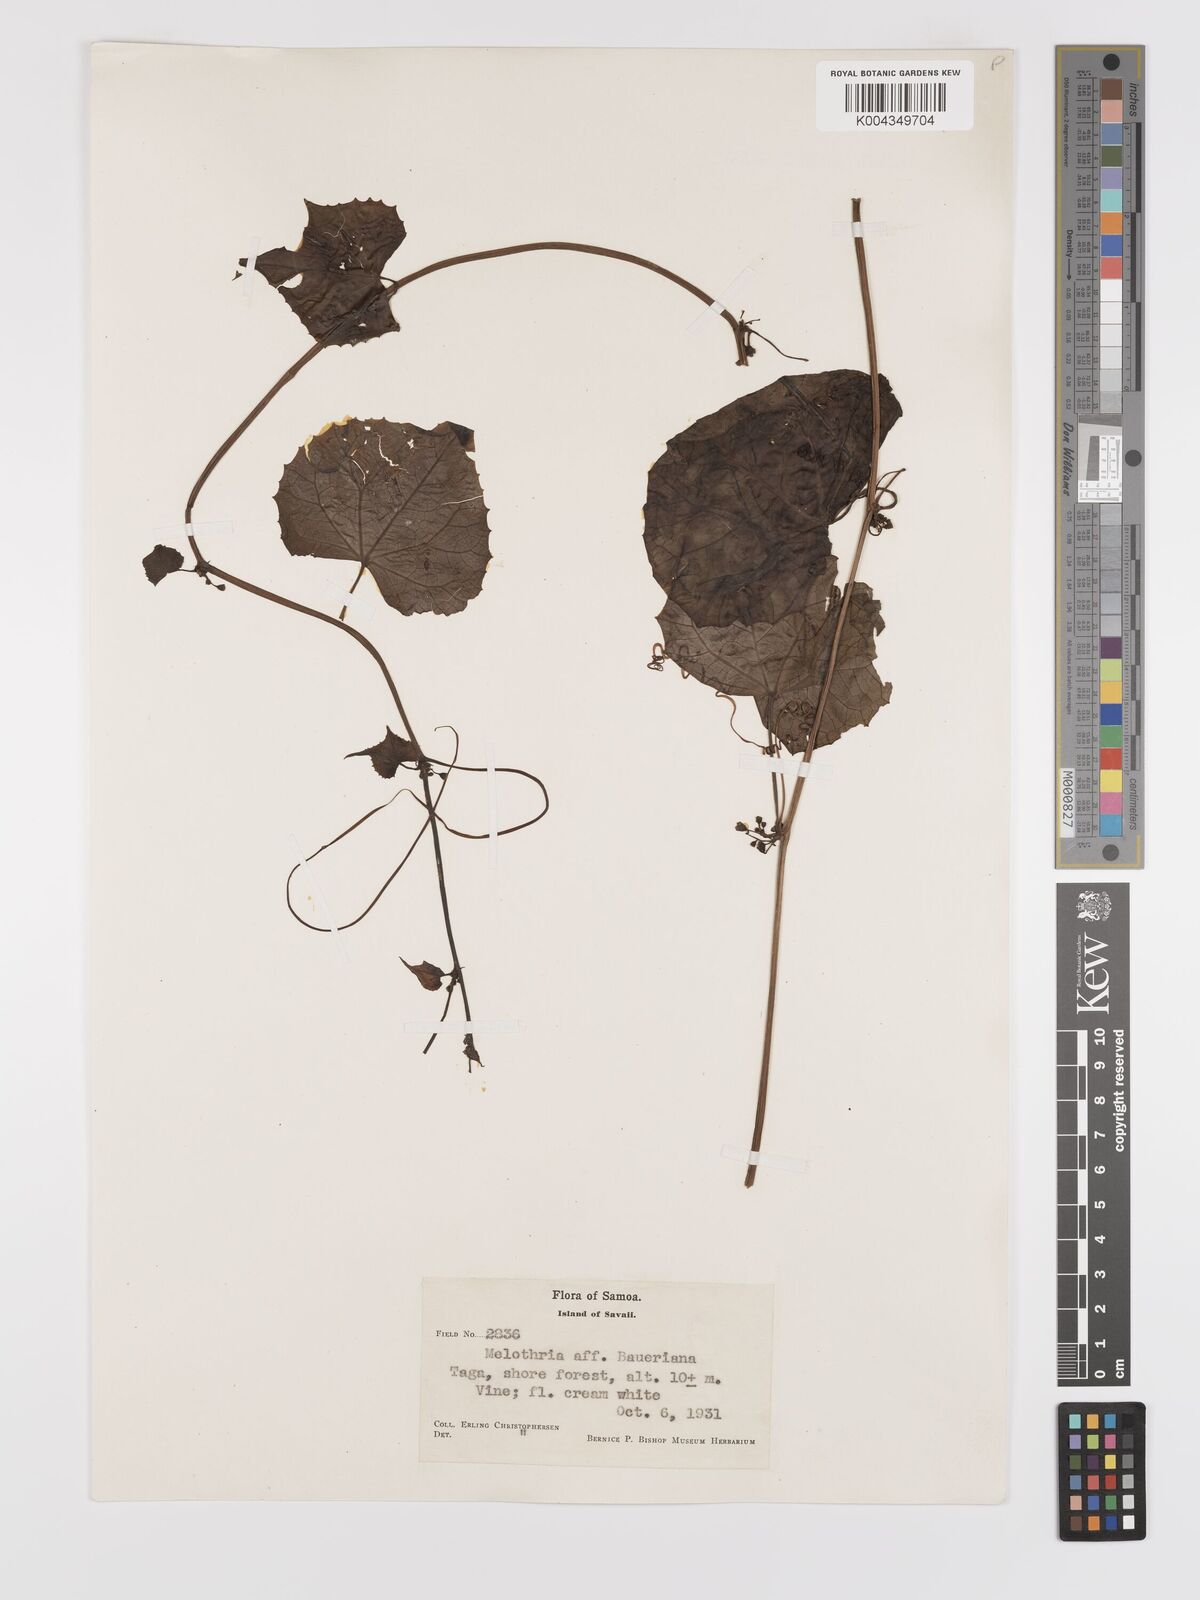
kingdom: Plantae
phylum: Tracheophyta
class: Magnoliopsida
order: Cucurbitales
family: Cucurbitaceae
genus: Zehneria
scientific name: Zehneria
